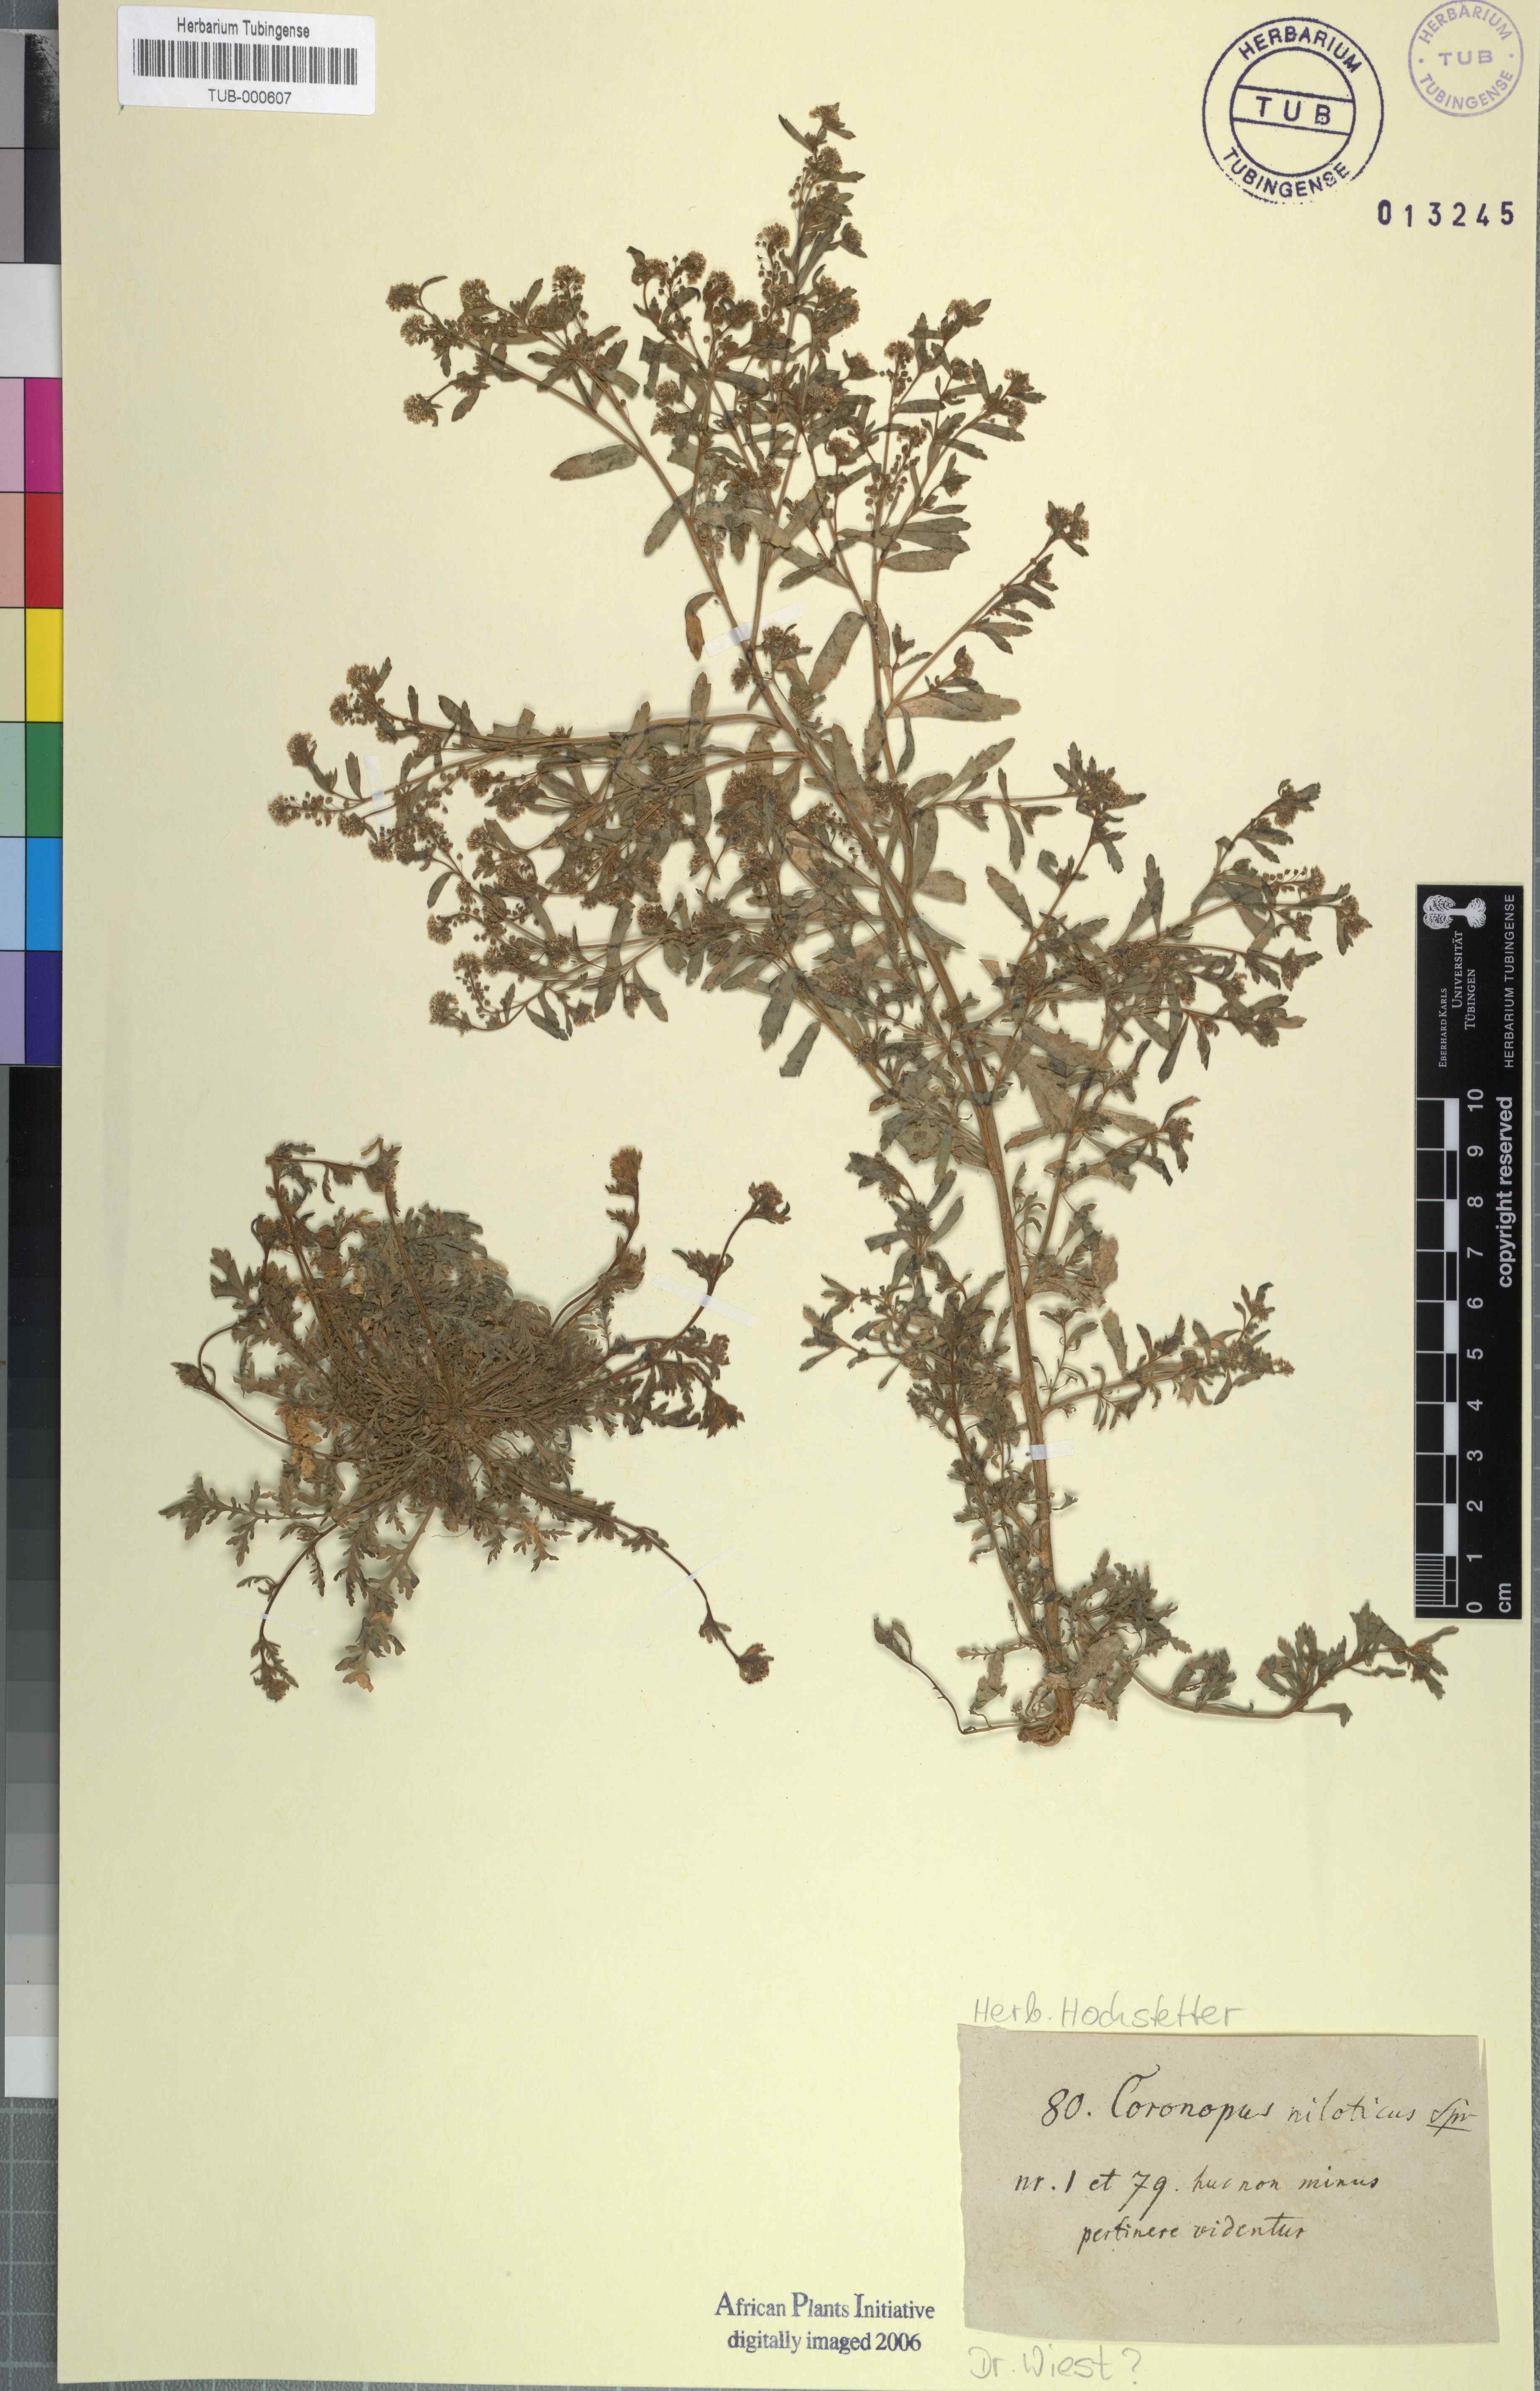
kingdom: Plantae
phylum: Tracheophyta
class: Magnoliopsida
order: Brassicales
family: Brassicaceae
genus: Lepidium
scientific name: Lepidium niloticum
